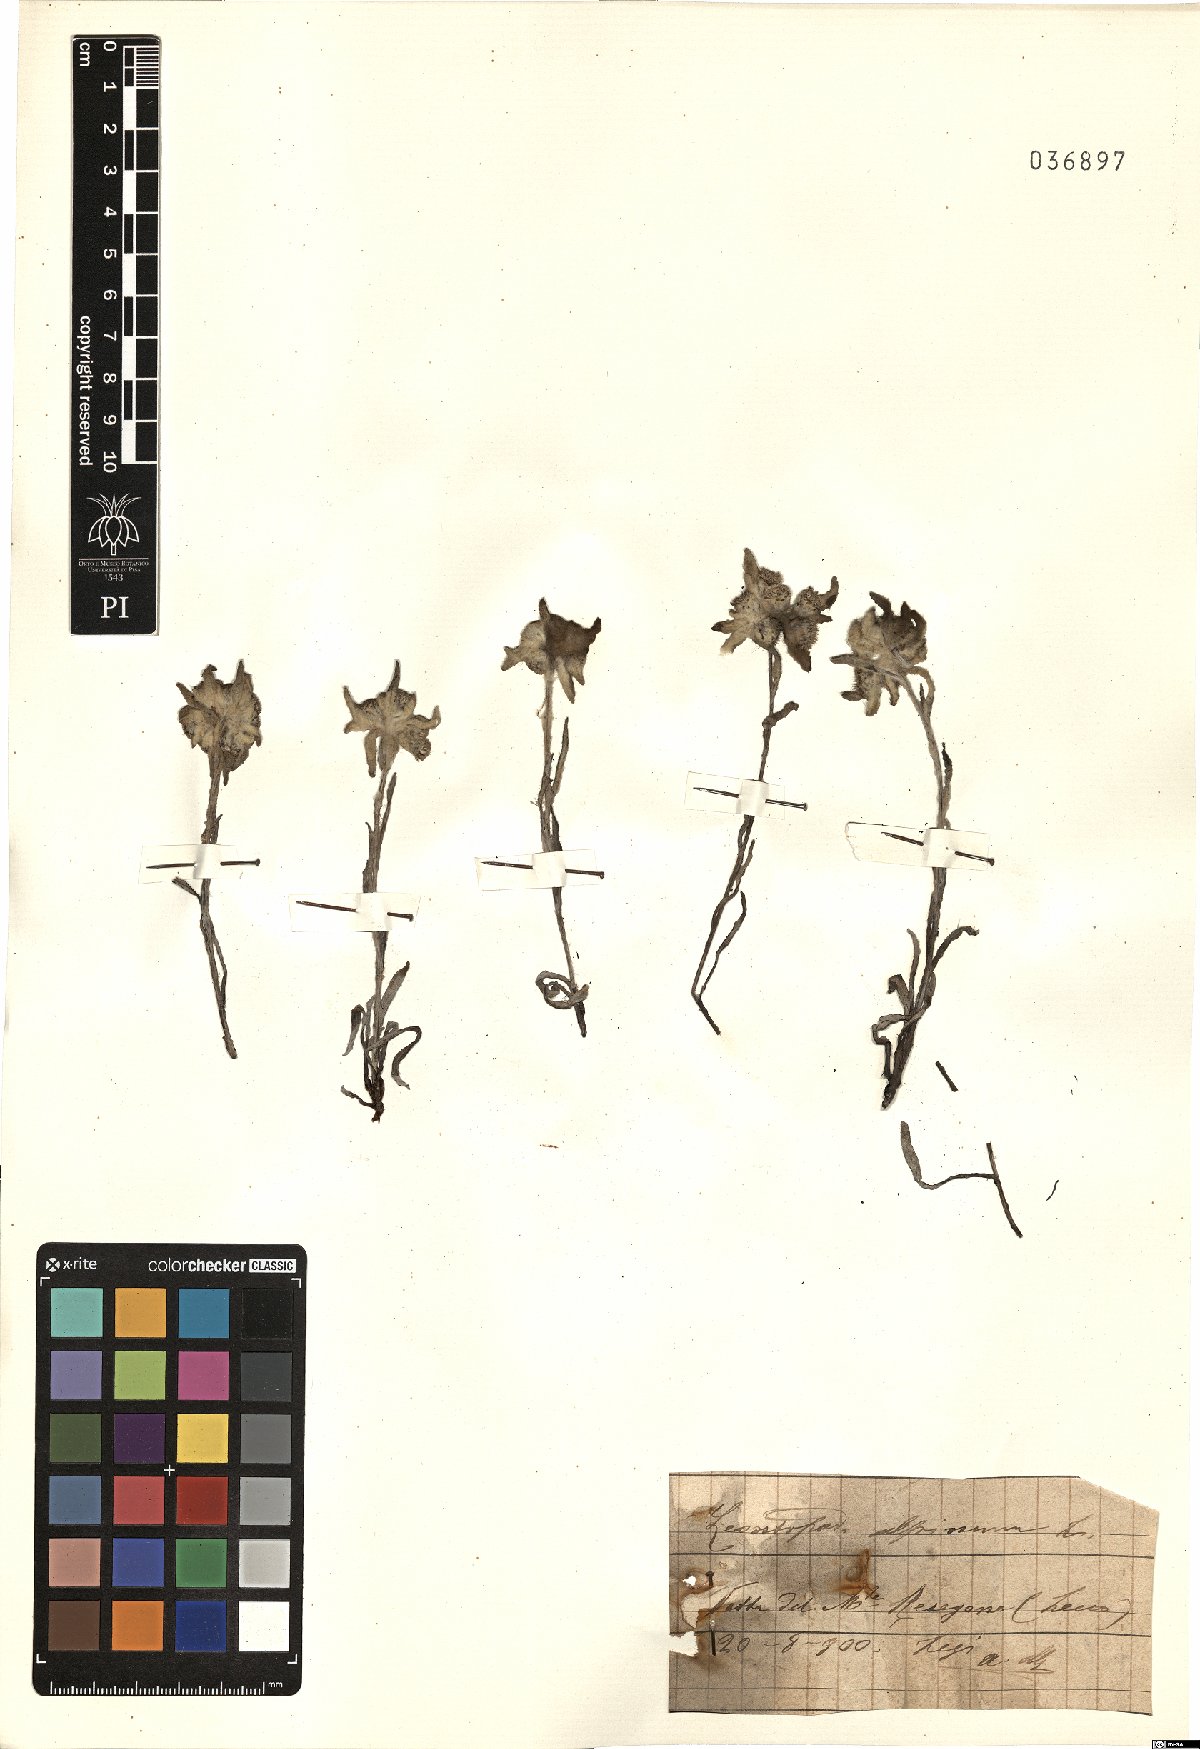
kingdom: Plantae
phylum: Tracheophyta
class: Magnoliopsida
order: Asterales
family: Asteraceae
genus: Leontopodium
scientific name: Leontopodium nivale
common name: Edelweiss
